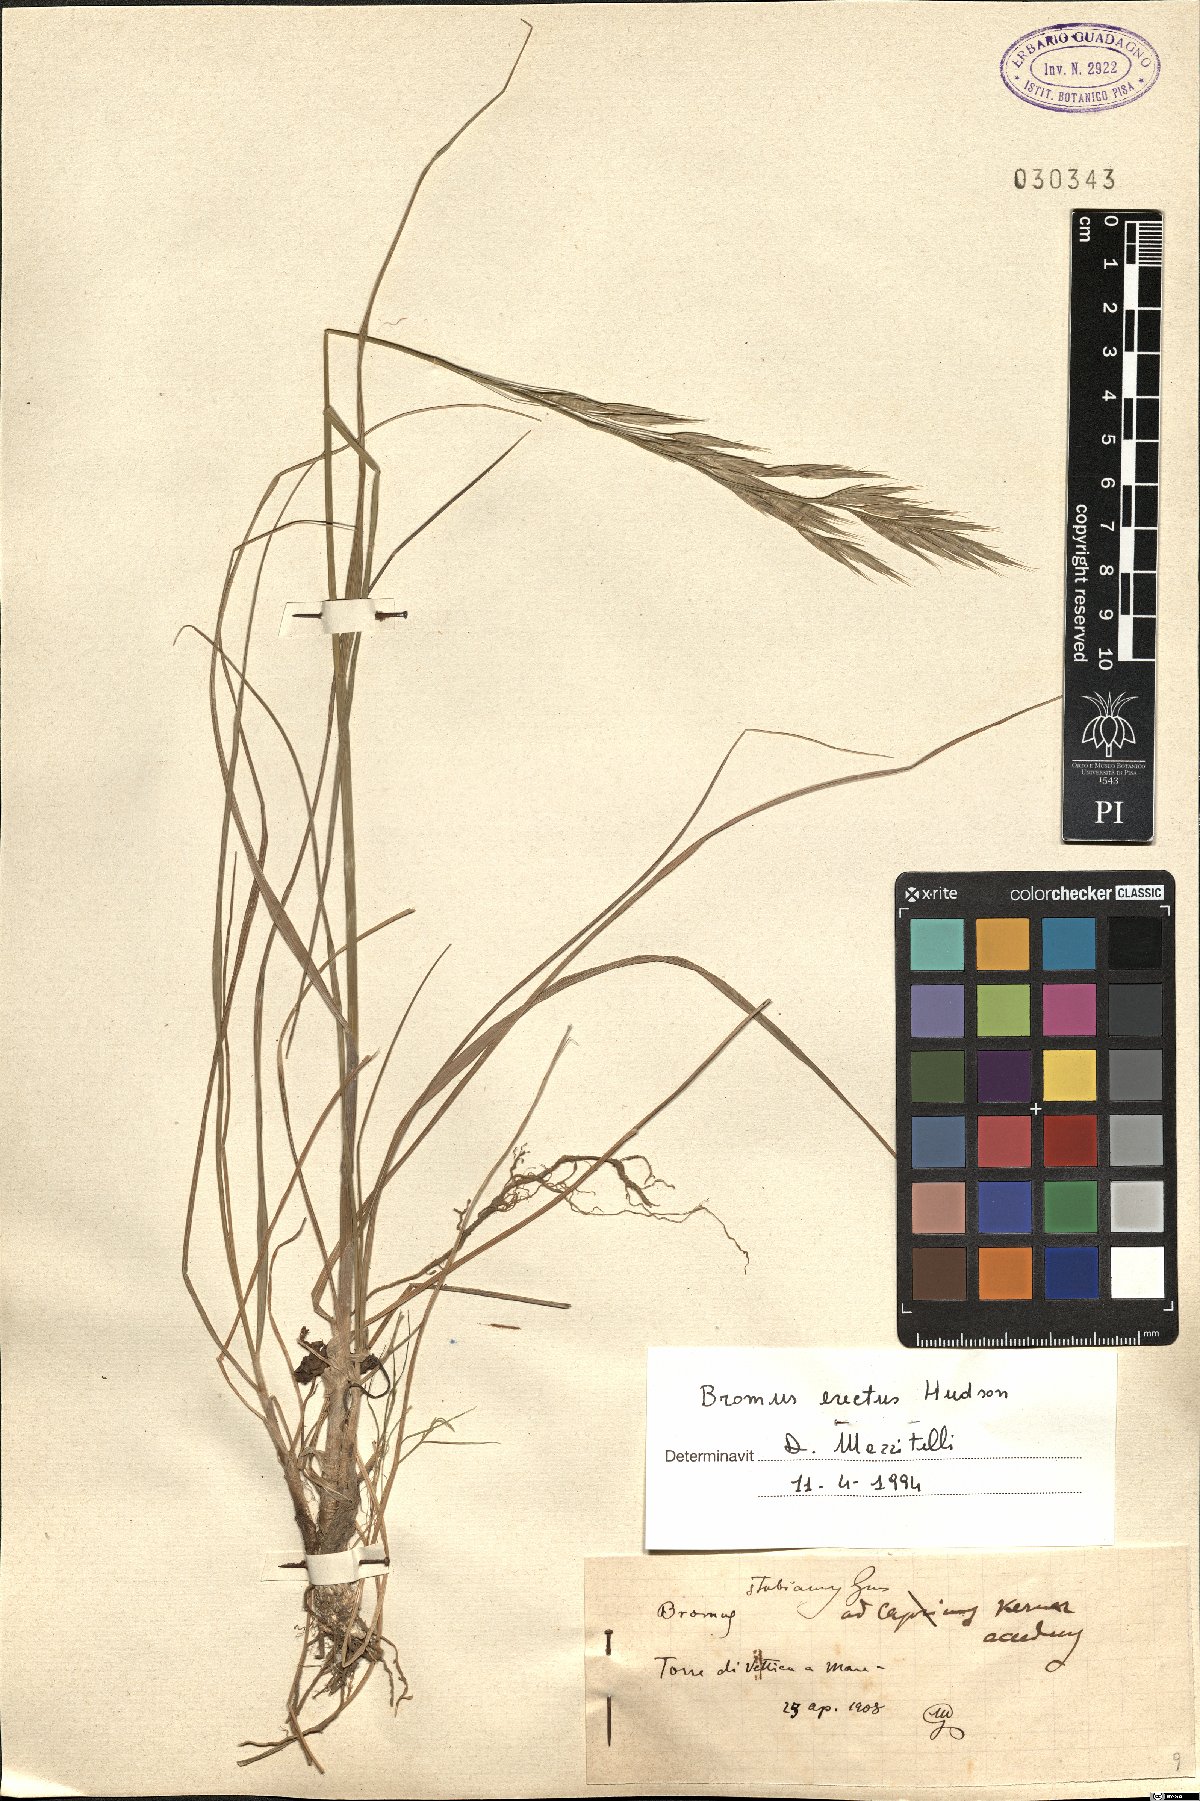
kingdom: Plantae
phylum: Tracheophyta
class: Liliopsida
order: Poales
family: Poaceae
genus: Bromus
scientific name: Bromus erectus
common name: Erect brome
